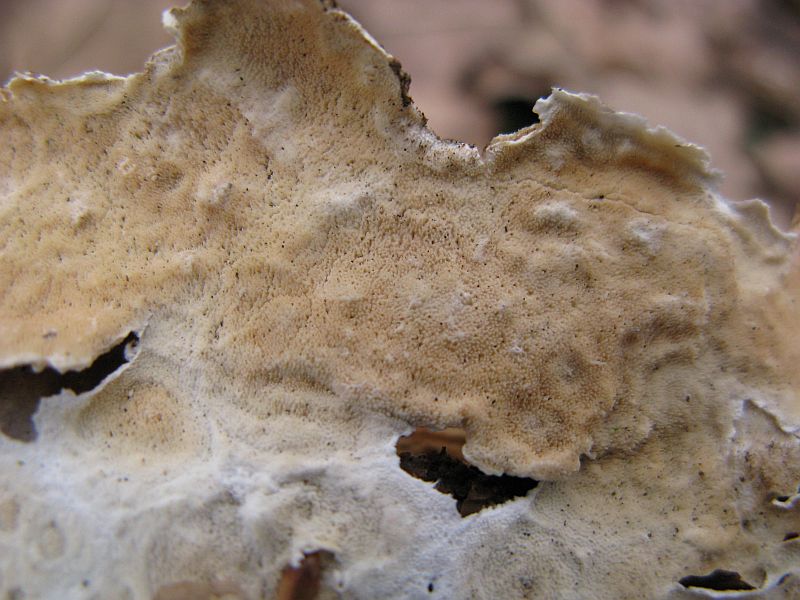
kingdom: Fungi
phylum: Basidiomycota
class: Agaricomycetes
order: Polyporales
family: Steccherinaceae
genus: Steccherinum
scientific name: Steccherinum ochraceum
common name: almindelig skønpig
